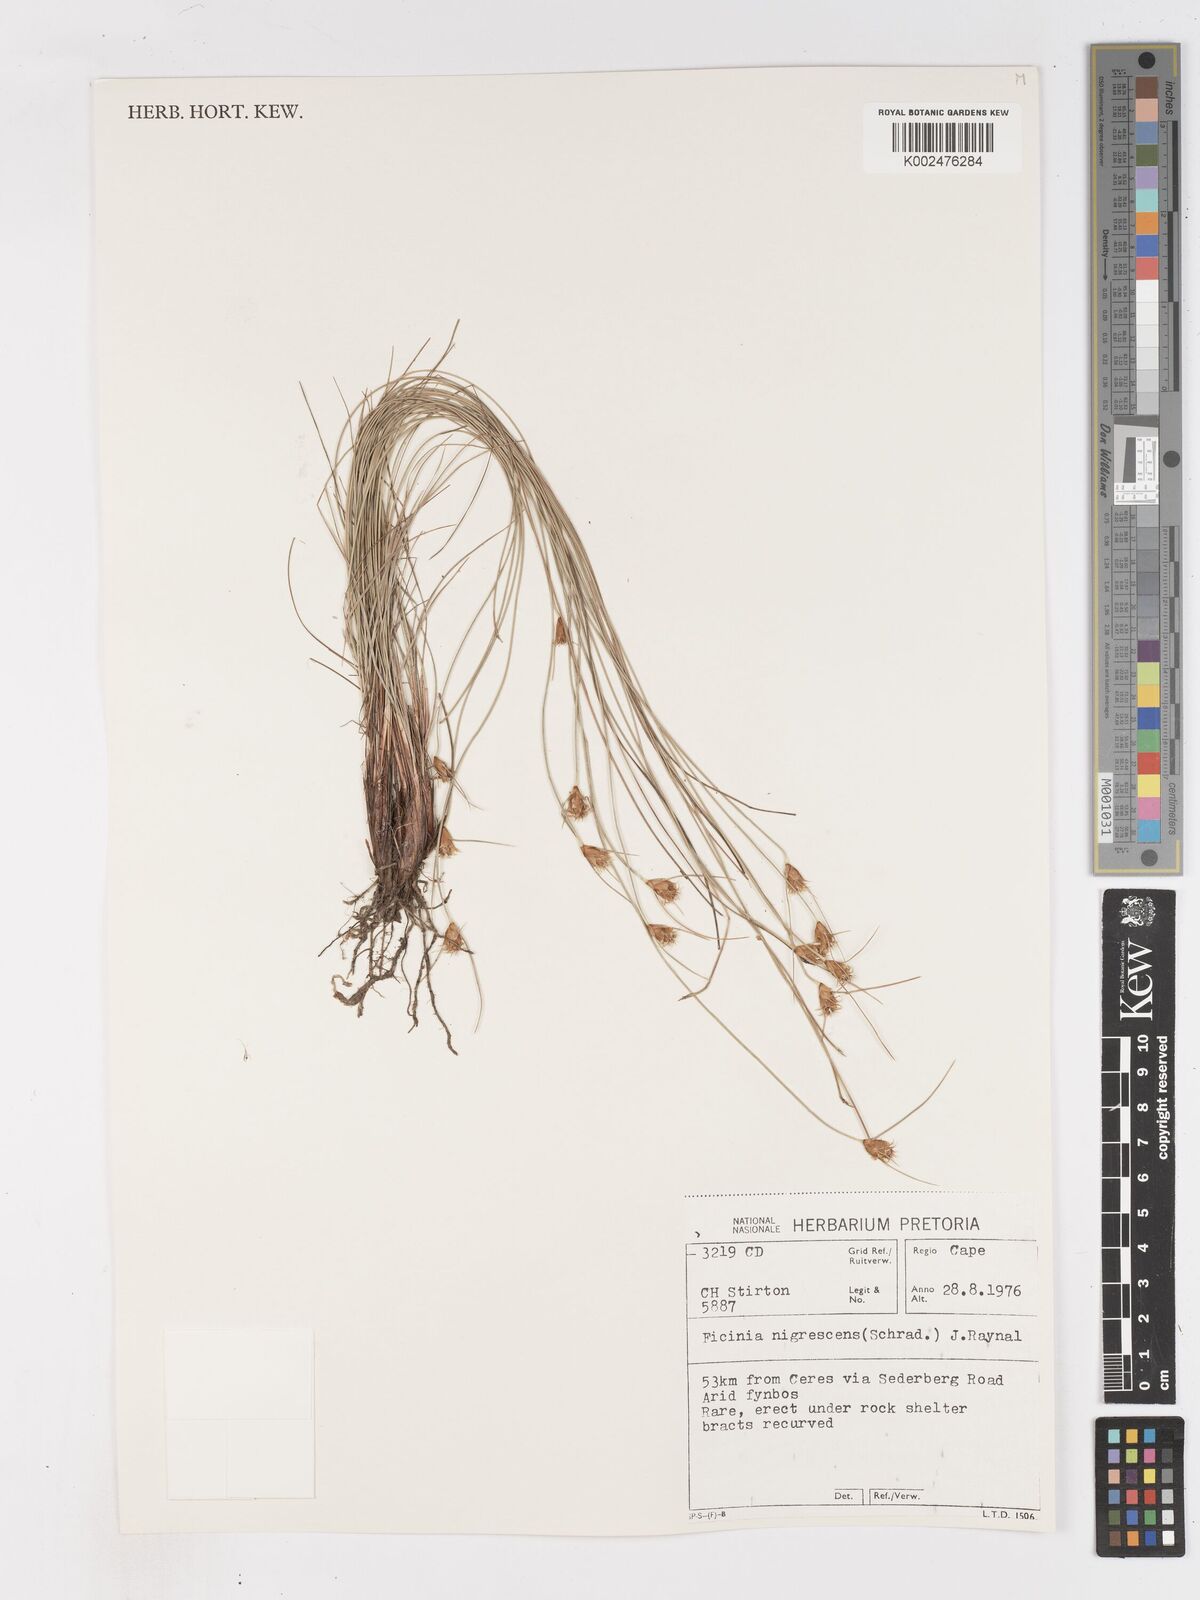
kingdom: Plantae
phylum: Tracheophyta
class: Liliopsida
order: Poales
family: Cyperaceae
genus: Ficinia
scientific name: Ficinia nigrescens
